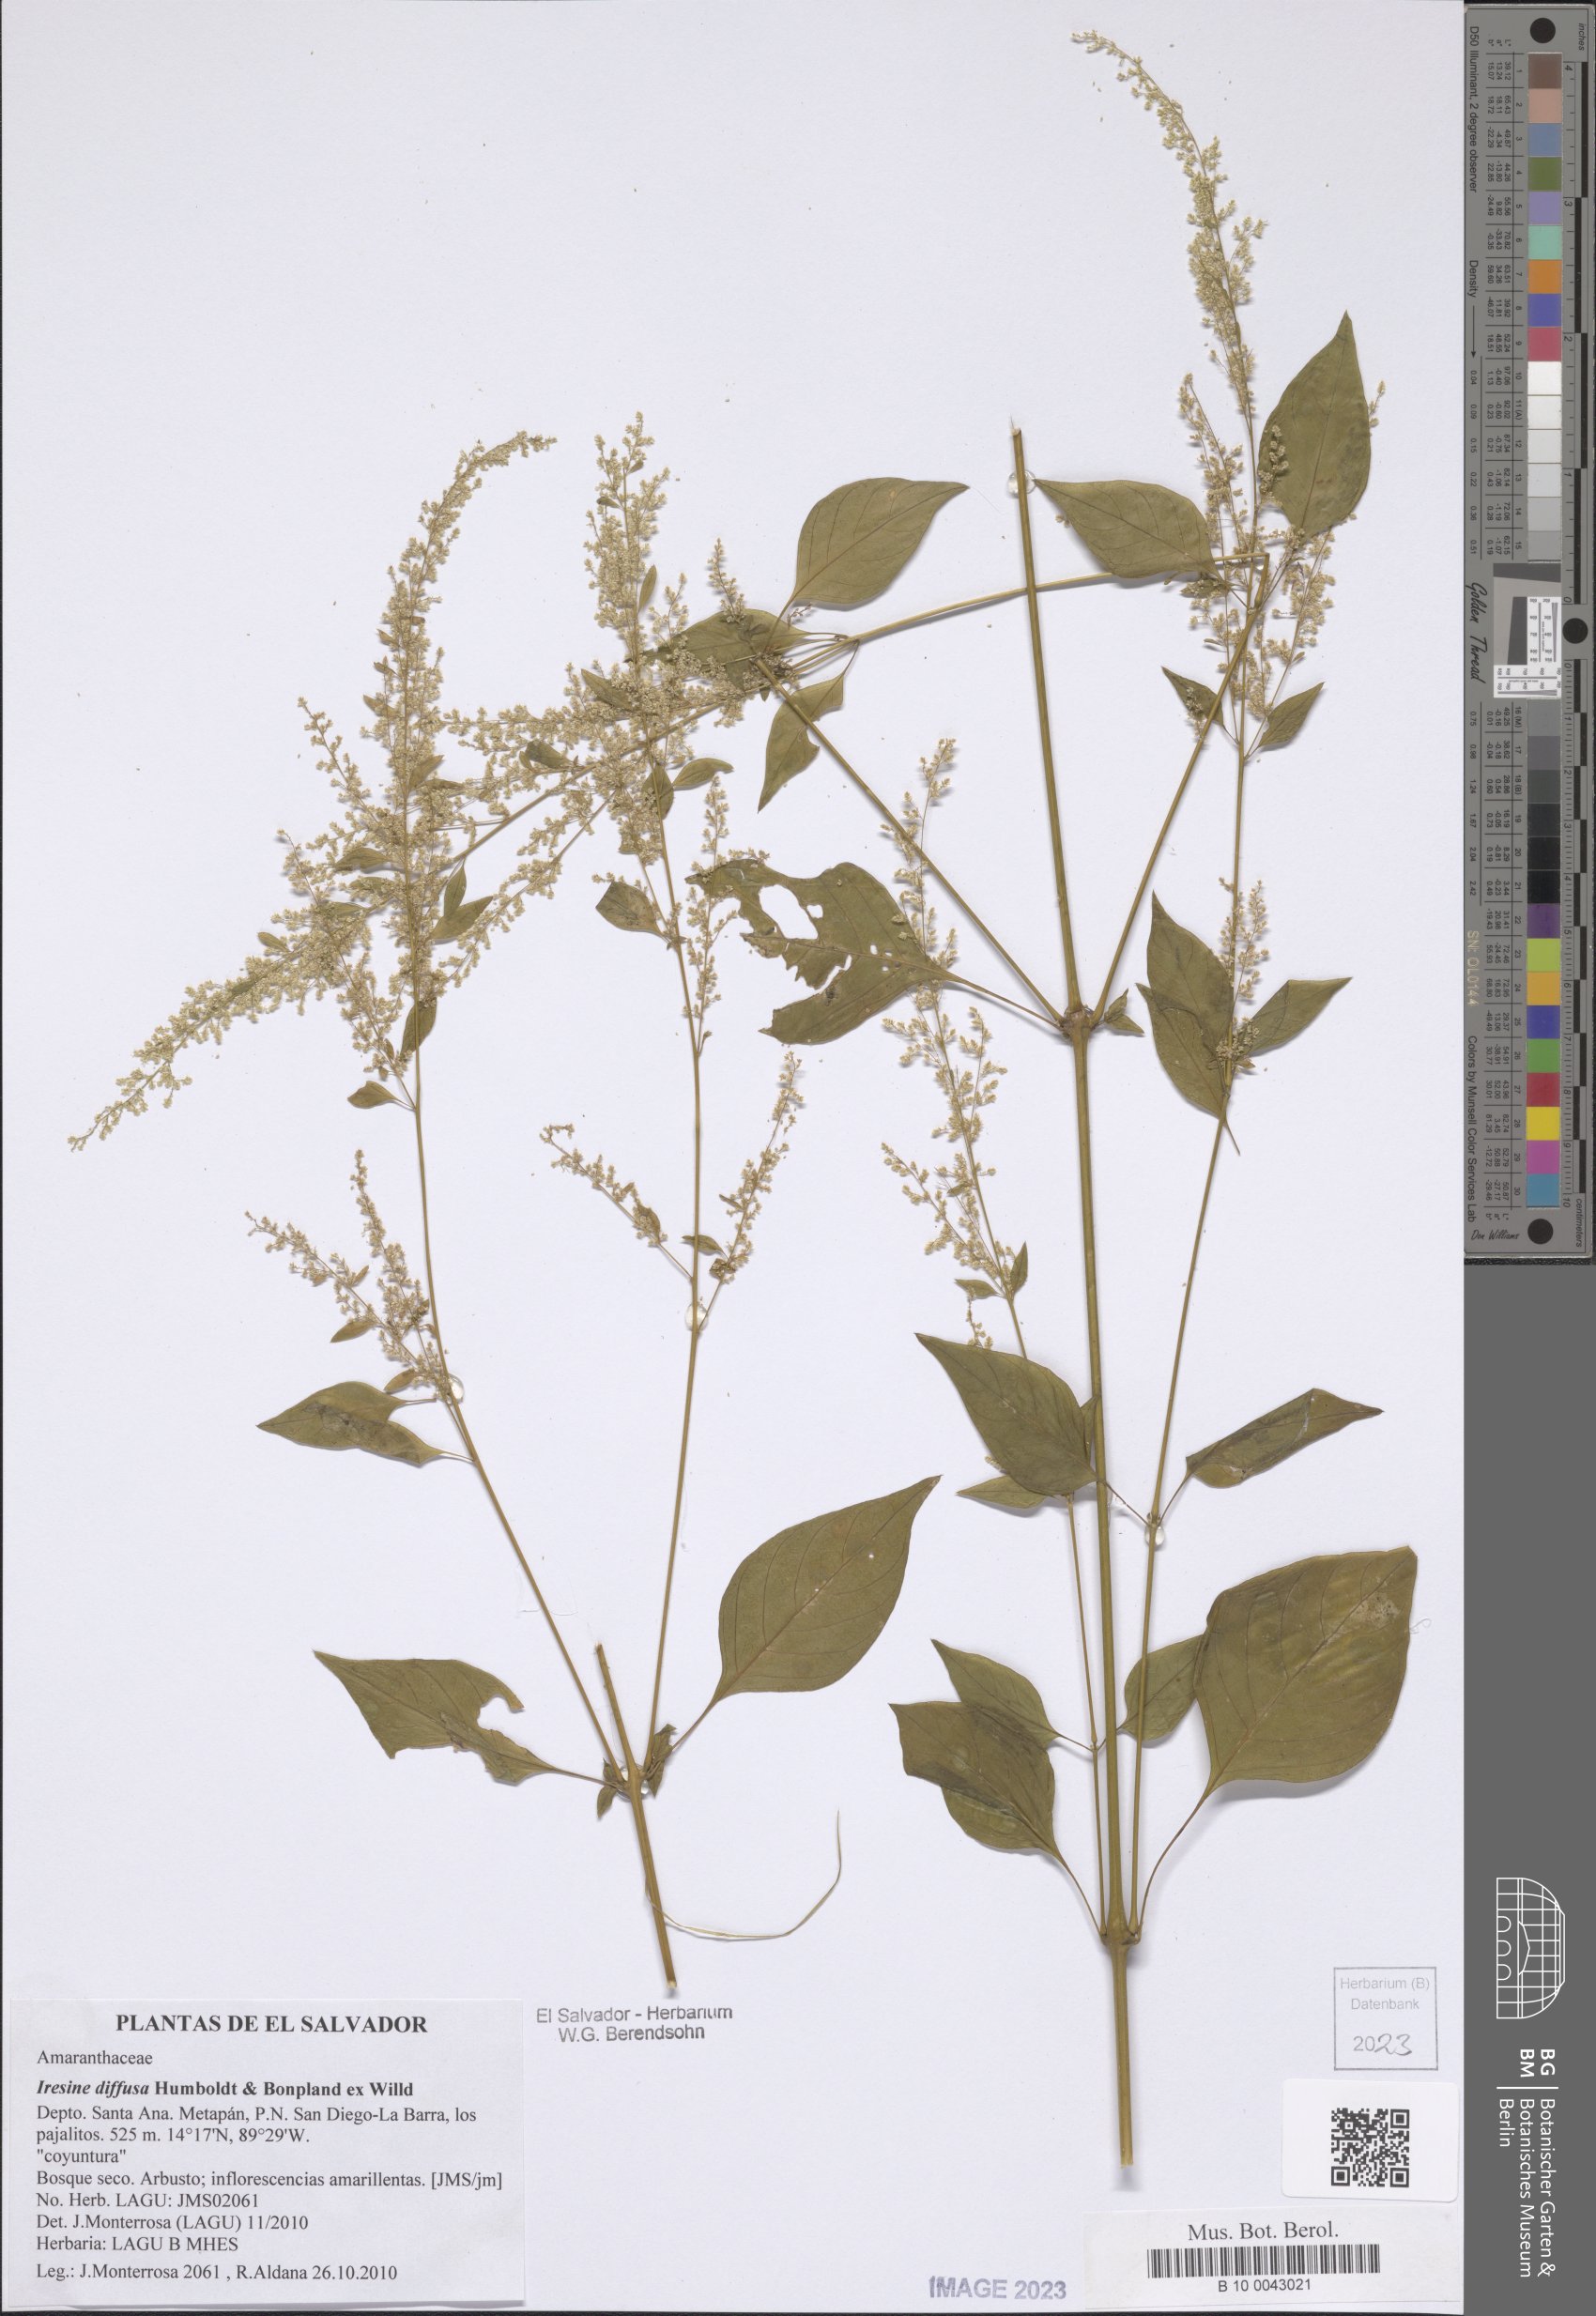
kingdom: Plantae
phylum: Tracheophyta
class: Magnoliopsida
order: Caryophyllales
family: Amaranthaceae
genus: Iresine
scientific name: Iresine diffusa
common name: Juba's-bush
